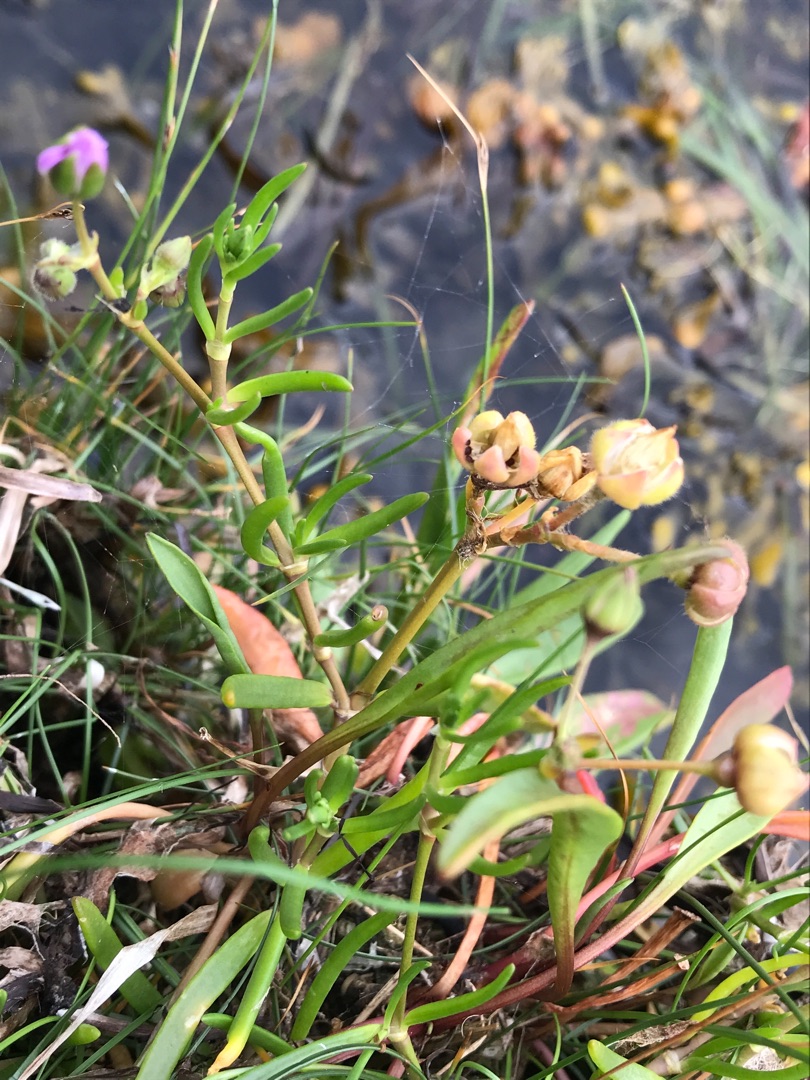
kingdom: Plantae
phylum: Tracheophyta
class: Magnoliopsida
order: Caryophyllales
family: Caryophyllaceae
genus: Spergularia
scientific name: Spergularia marina
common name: Kødet hindeknæ
